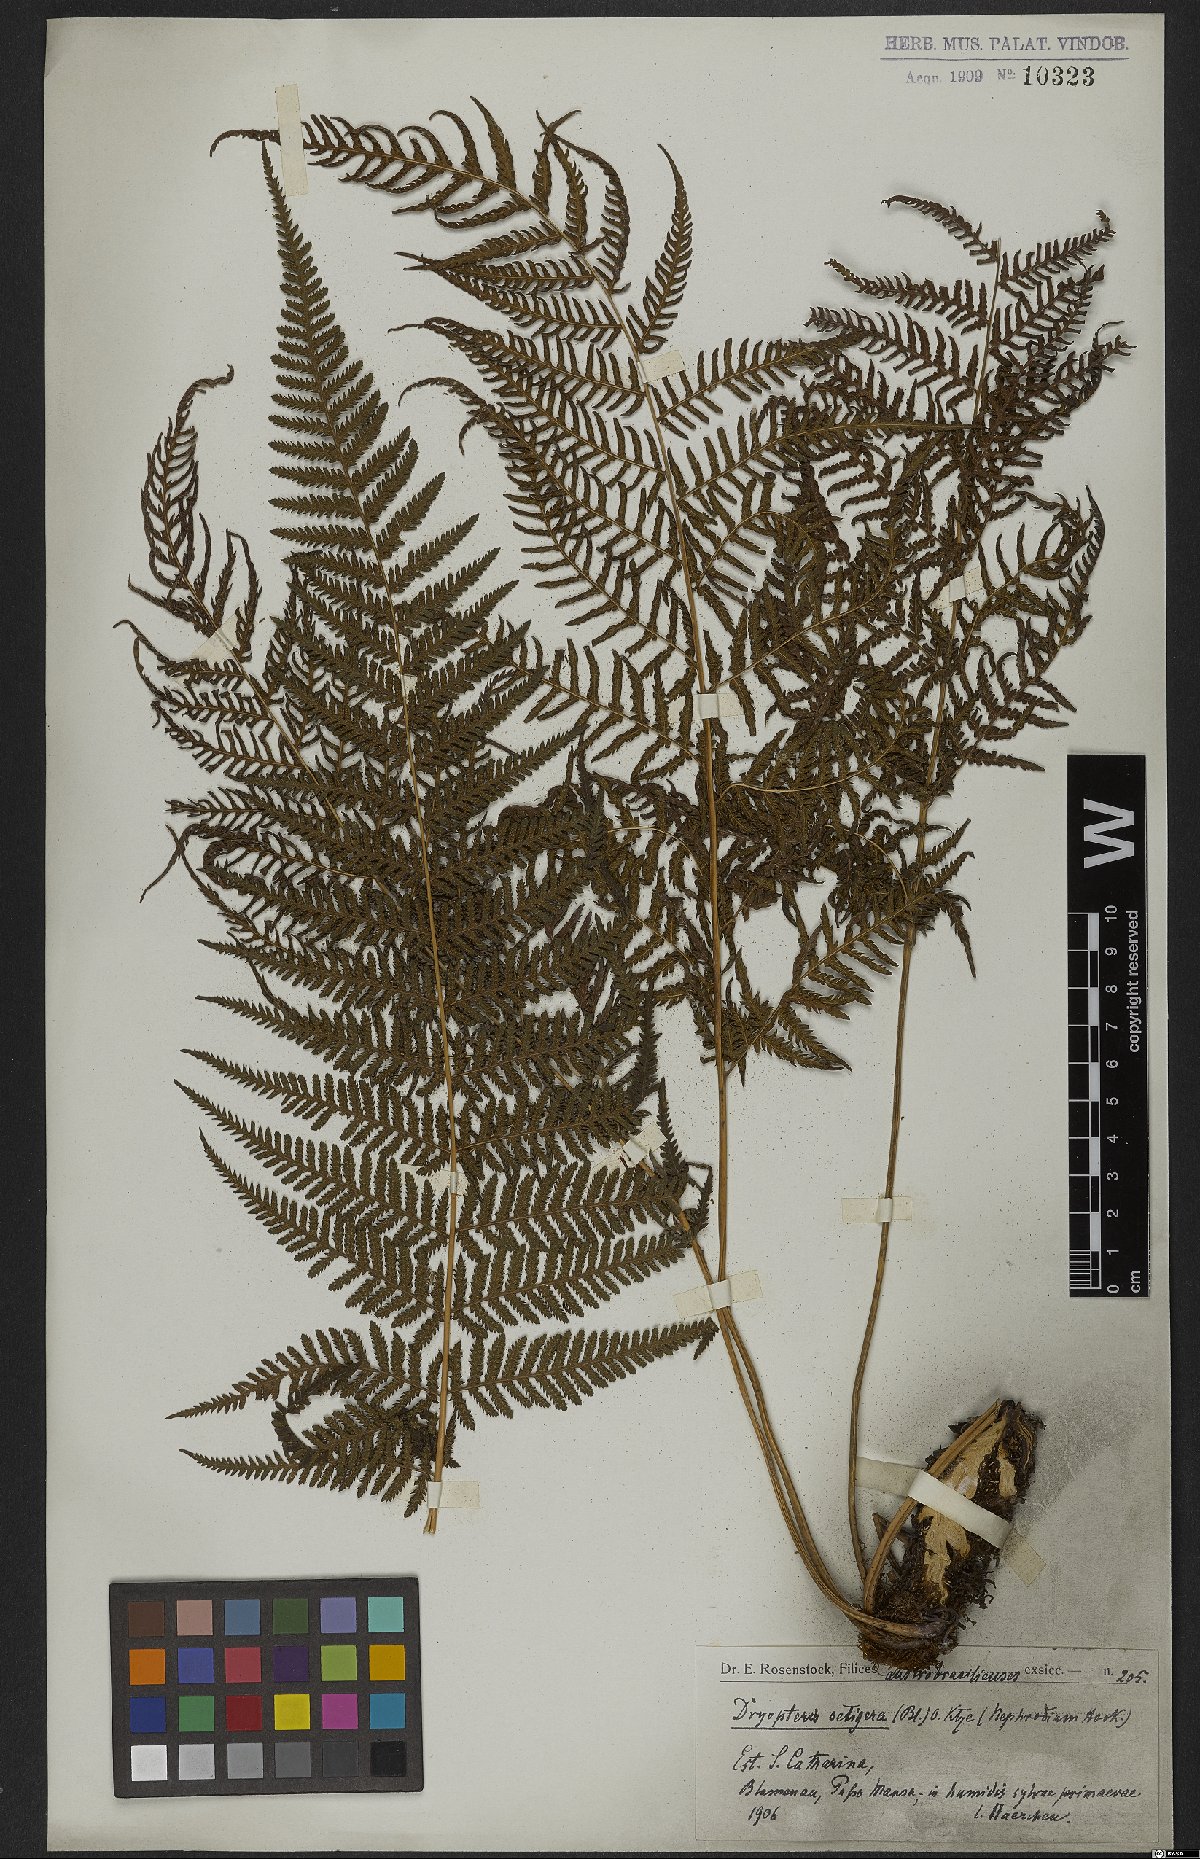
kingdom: Plantae
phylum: Tracheophyta
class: Polypodiopsida
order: Polypodiales
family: Thelypteridaceae
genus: Macrothelypteris
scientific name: Macrothelypteris torresiana
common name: Swordfern
